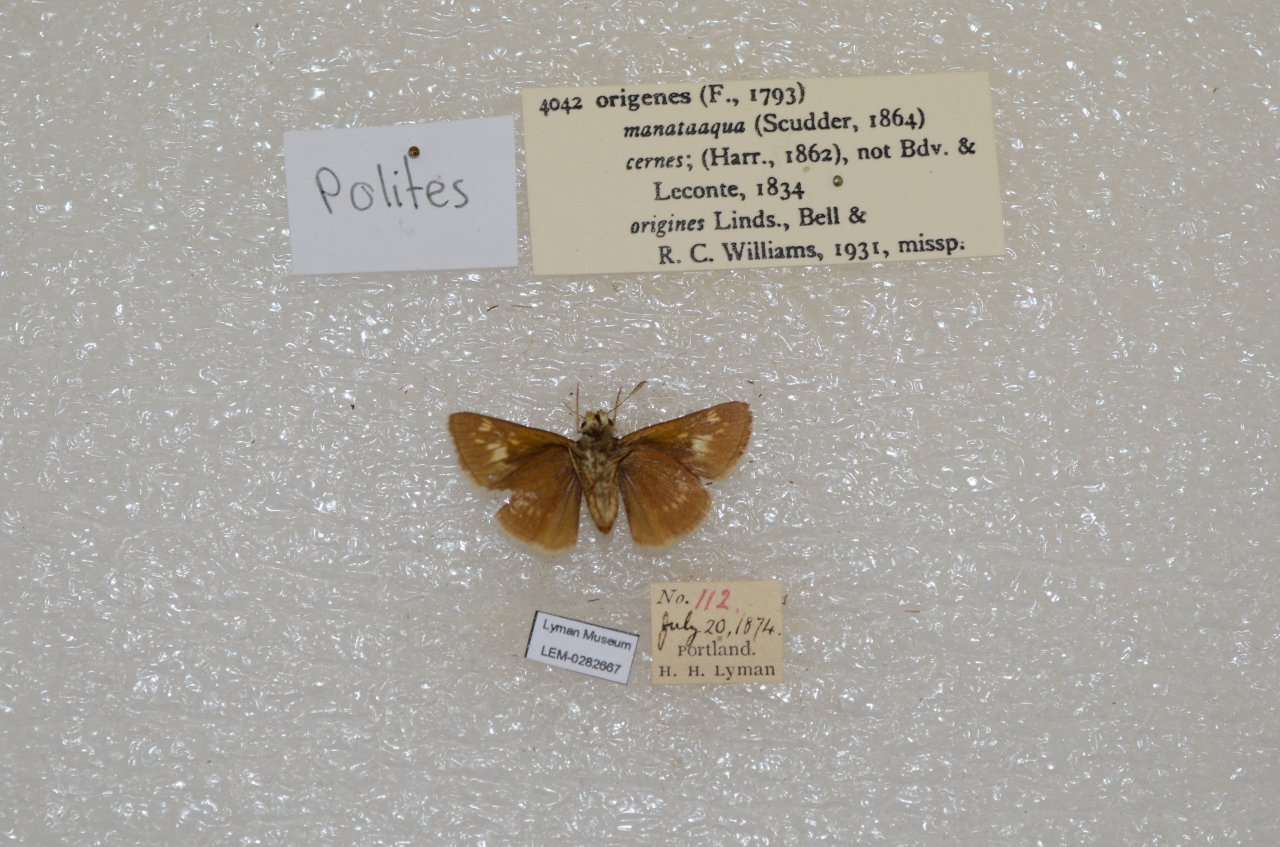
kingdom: Animalia
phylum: Arthropoda
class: Insecta
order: Lepidoptera
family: Hesperiidae
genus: Polites
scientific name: Polites
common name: Crossline Skipper
